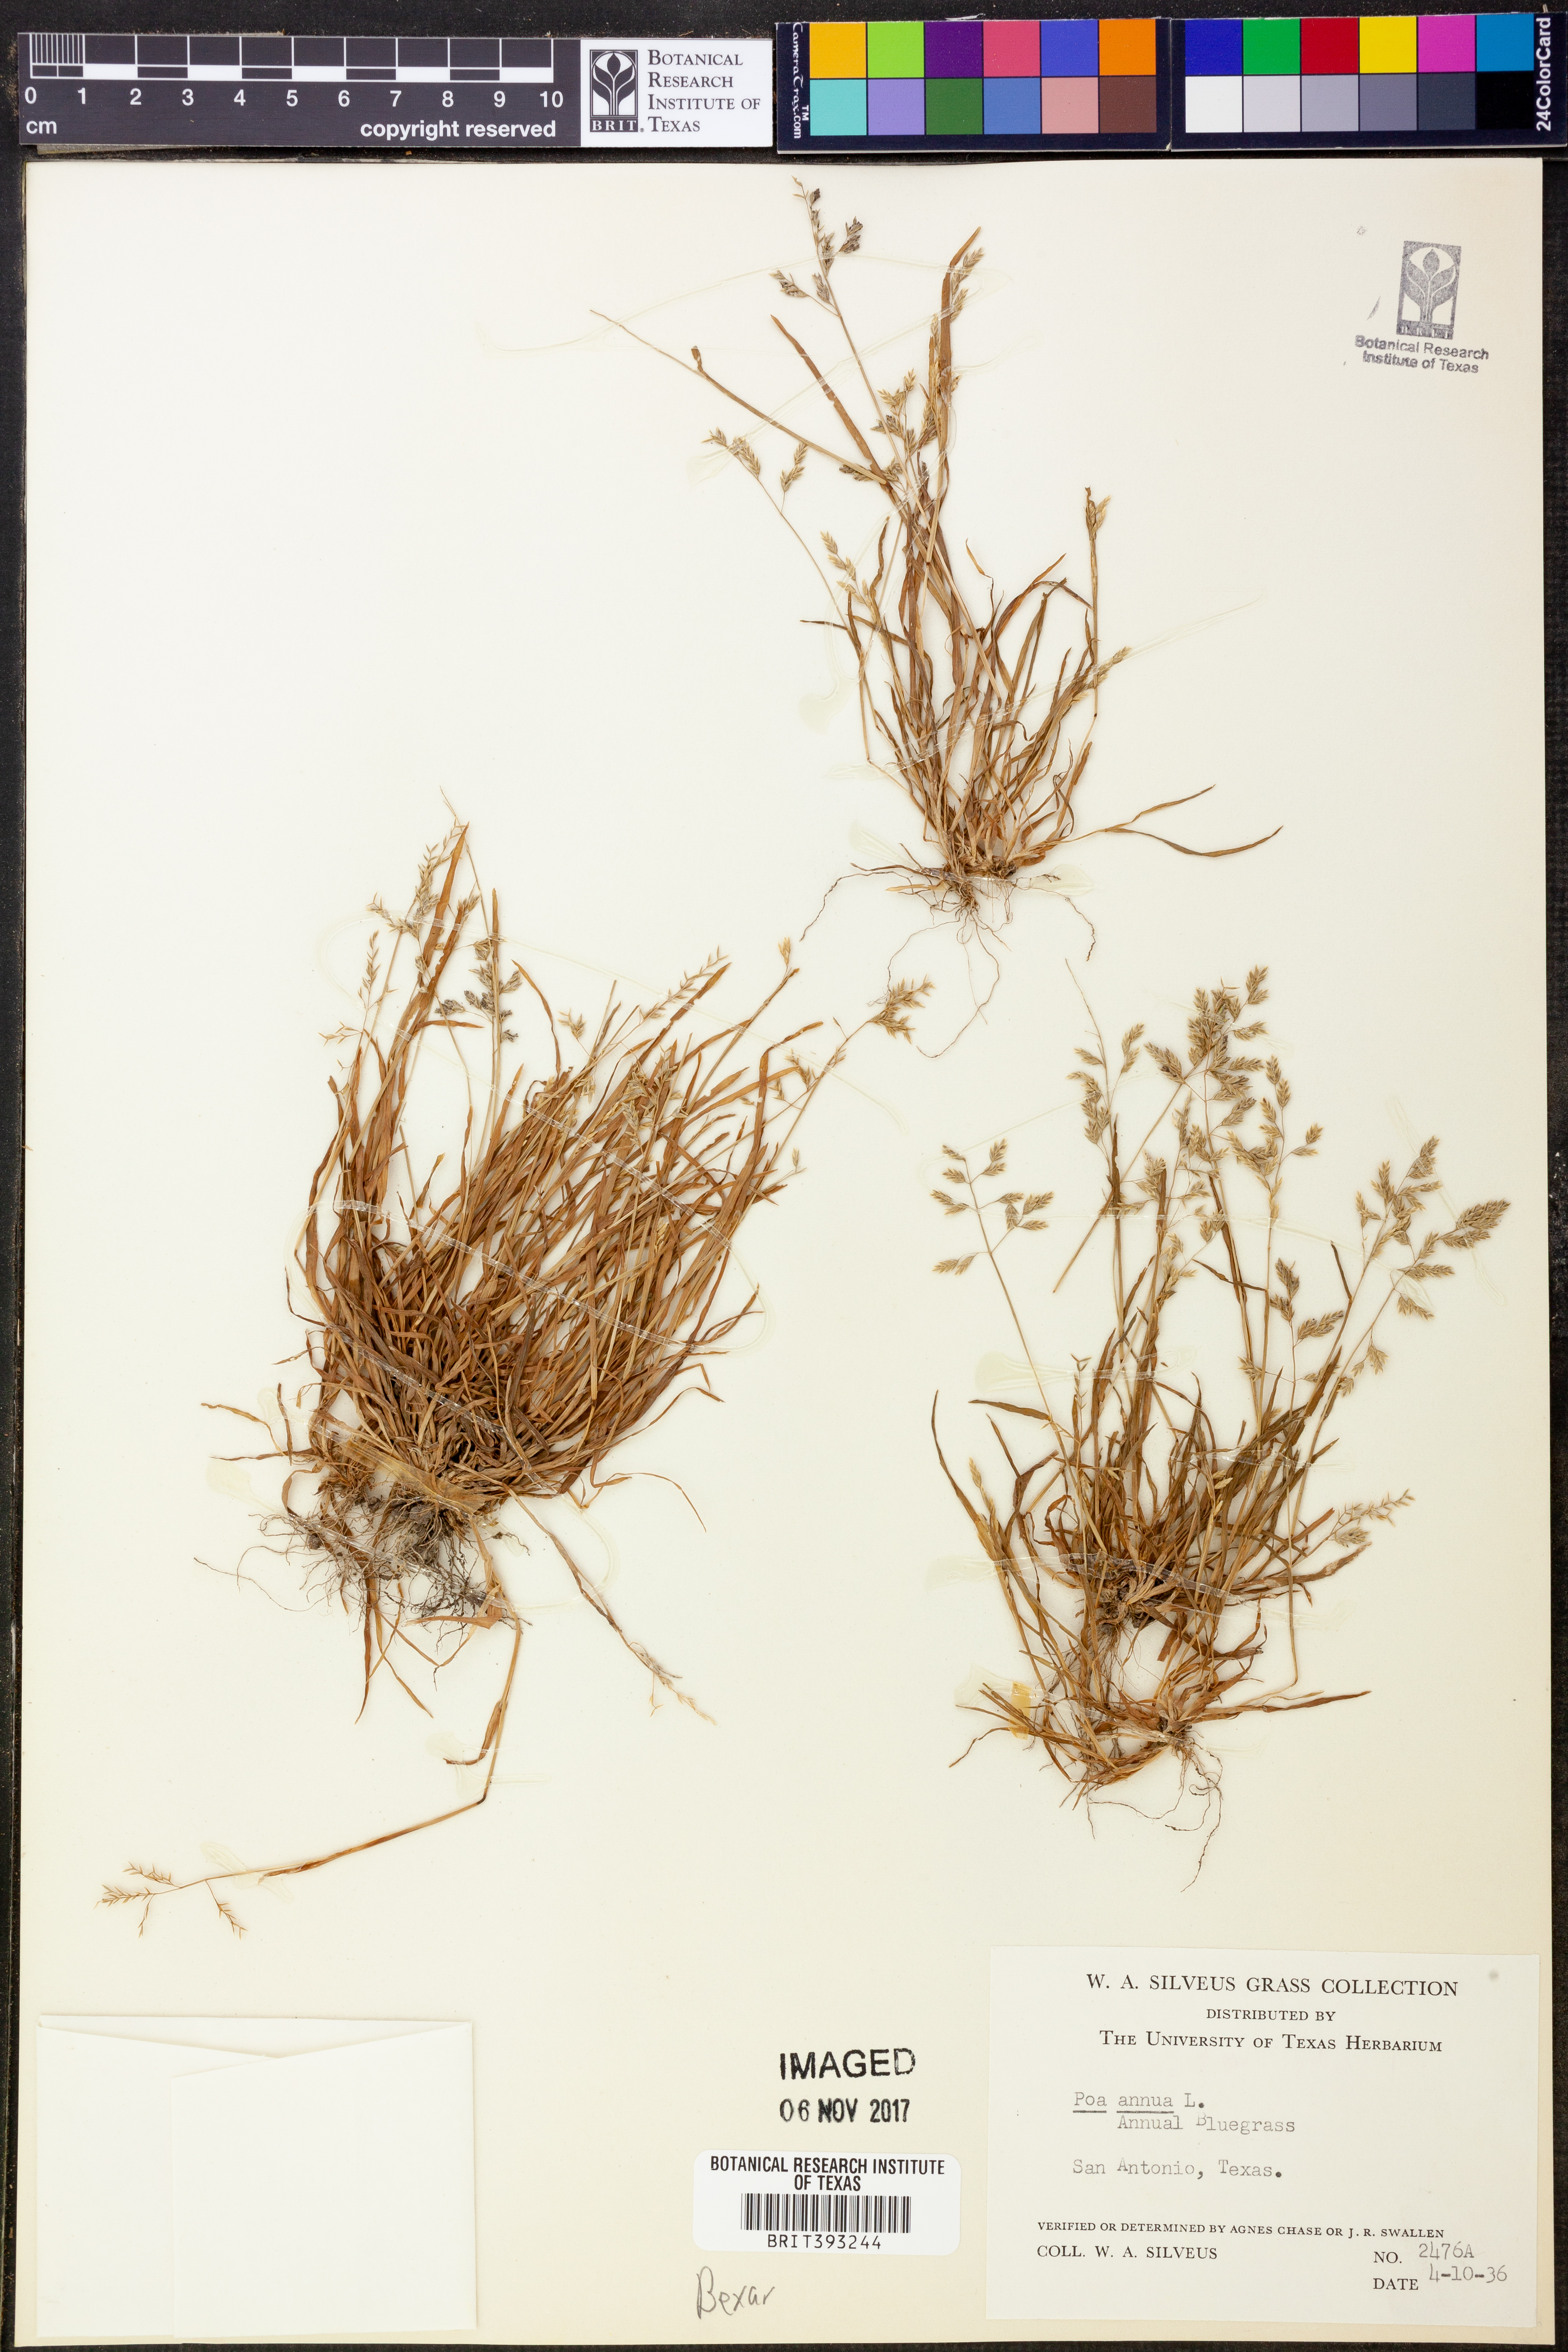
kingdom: Plantae
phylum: Tracheophyta
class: Liliopsida
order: Poales
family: Poaceae
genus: Poa
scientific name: Poa annua
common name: Annual bluegrass
